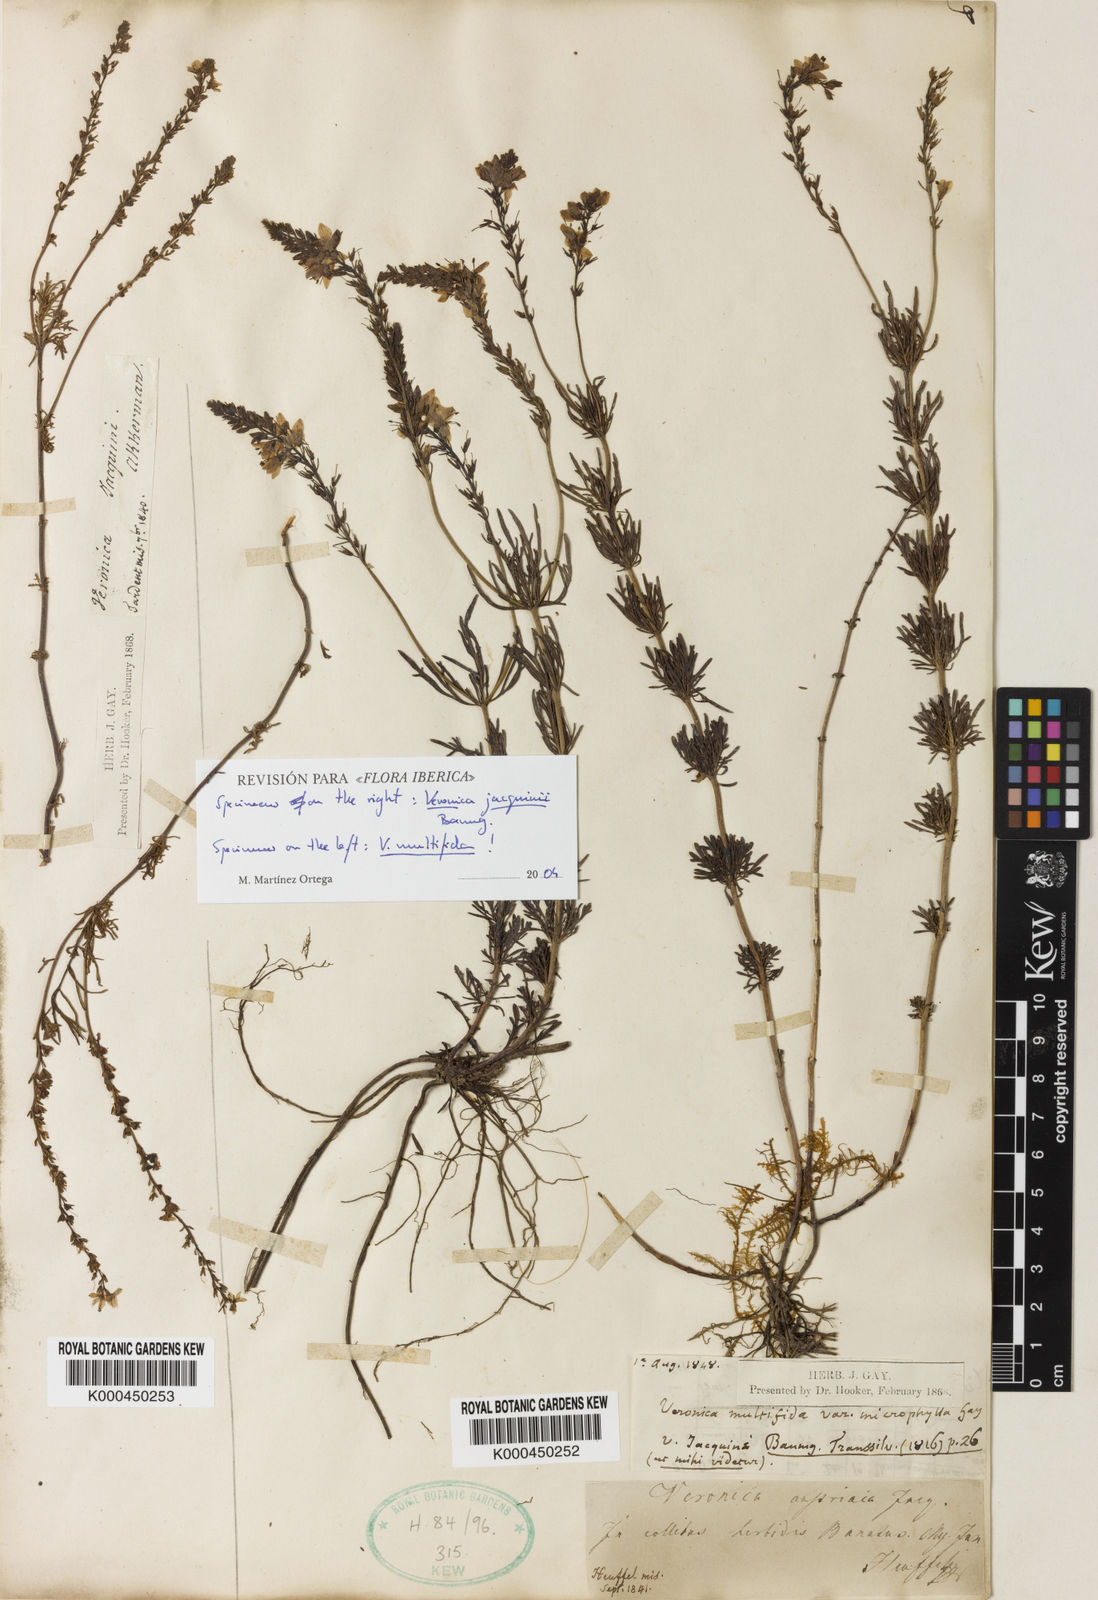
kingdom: Plantae
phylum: Tracheophyta
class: Magnoliopsida
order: Lamiales
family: Plantaginaceae
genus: Veronica
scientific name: Veronica multifida
